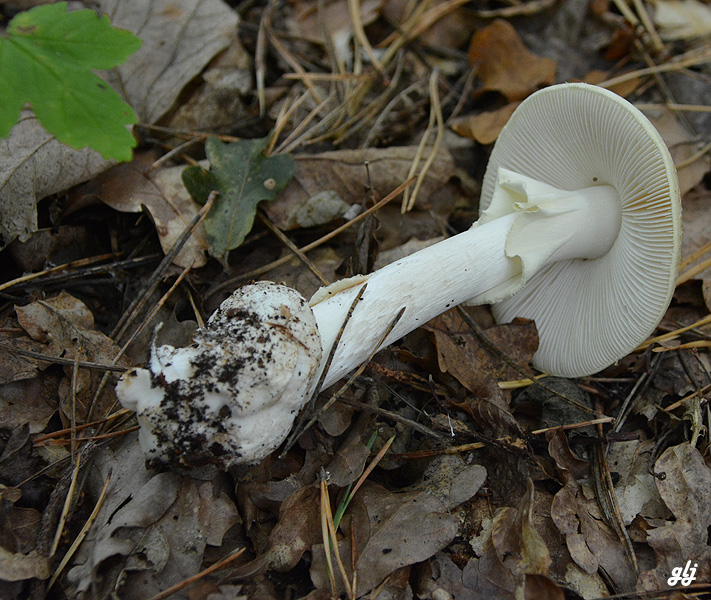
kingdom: Fungi
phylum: Basidiomycota
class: Agaricomycetes
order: Agaricales
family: Amanitaceae
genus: Amanita
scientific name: Amanita citrina
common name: kugleknoldet fluesvamp
